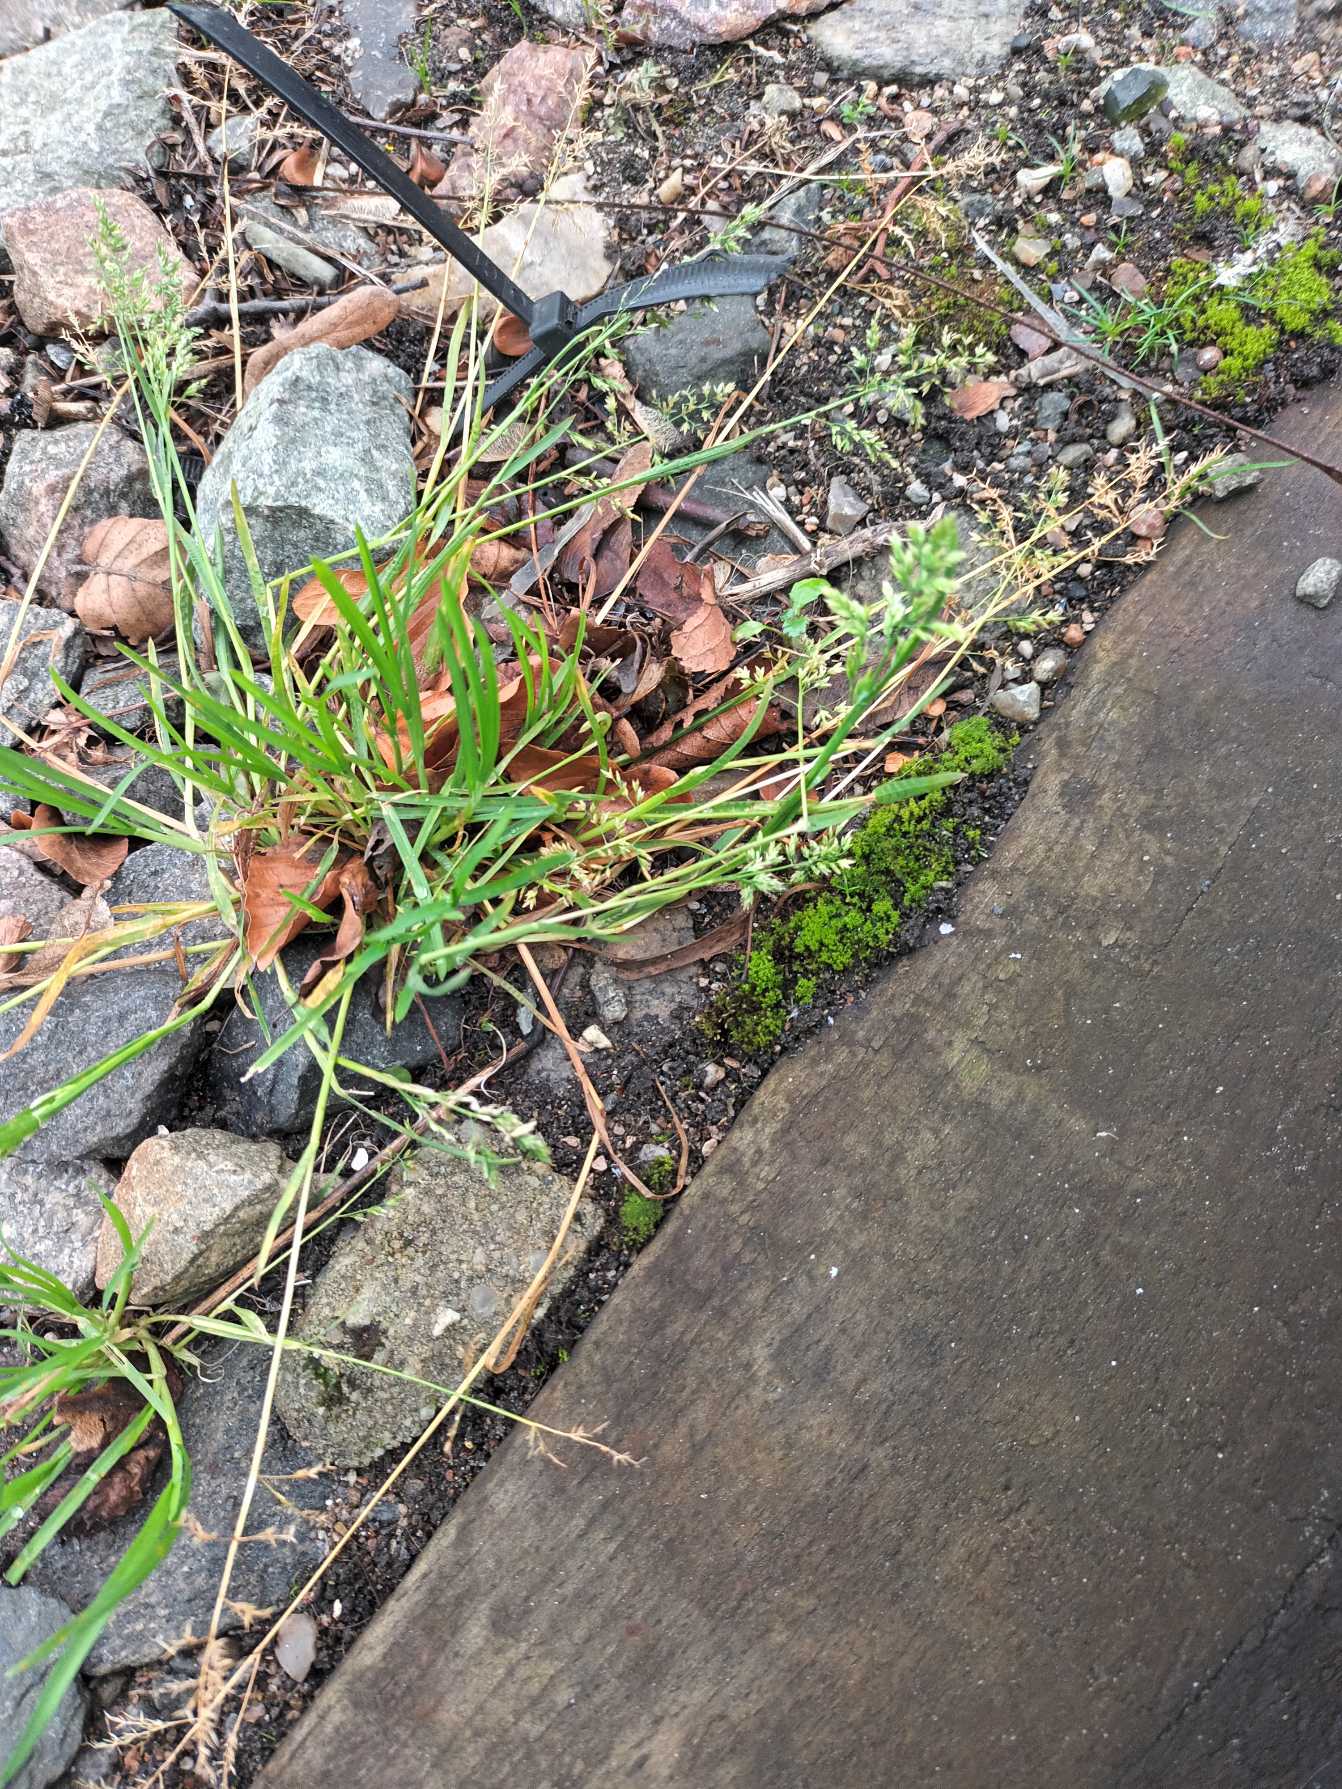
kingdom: Plantae
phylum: Tracheophyta
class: Liliopsida
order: Poales
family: Poaceae
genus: Poa
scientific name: Poa annua
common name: Enårig rapgræs
